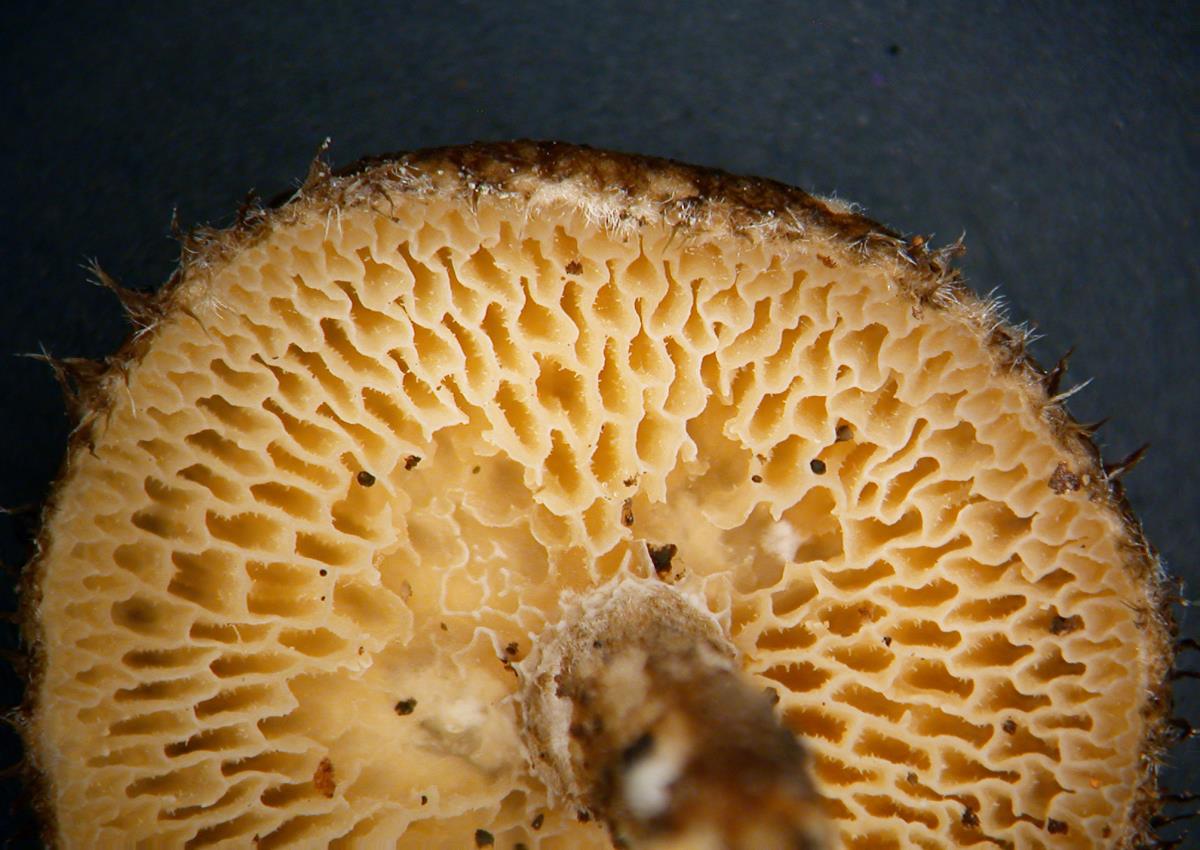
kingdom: Fungi
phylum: Basidiomycota
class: Agaricomycetes
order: Polyporales
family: Polyporaceae
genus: Lentinus
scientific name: Lentinus arcularius
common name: Spring polypore
